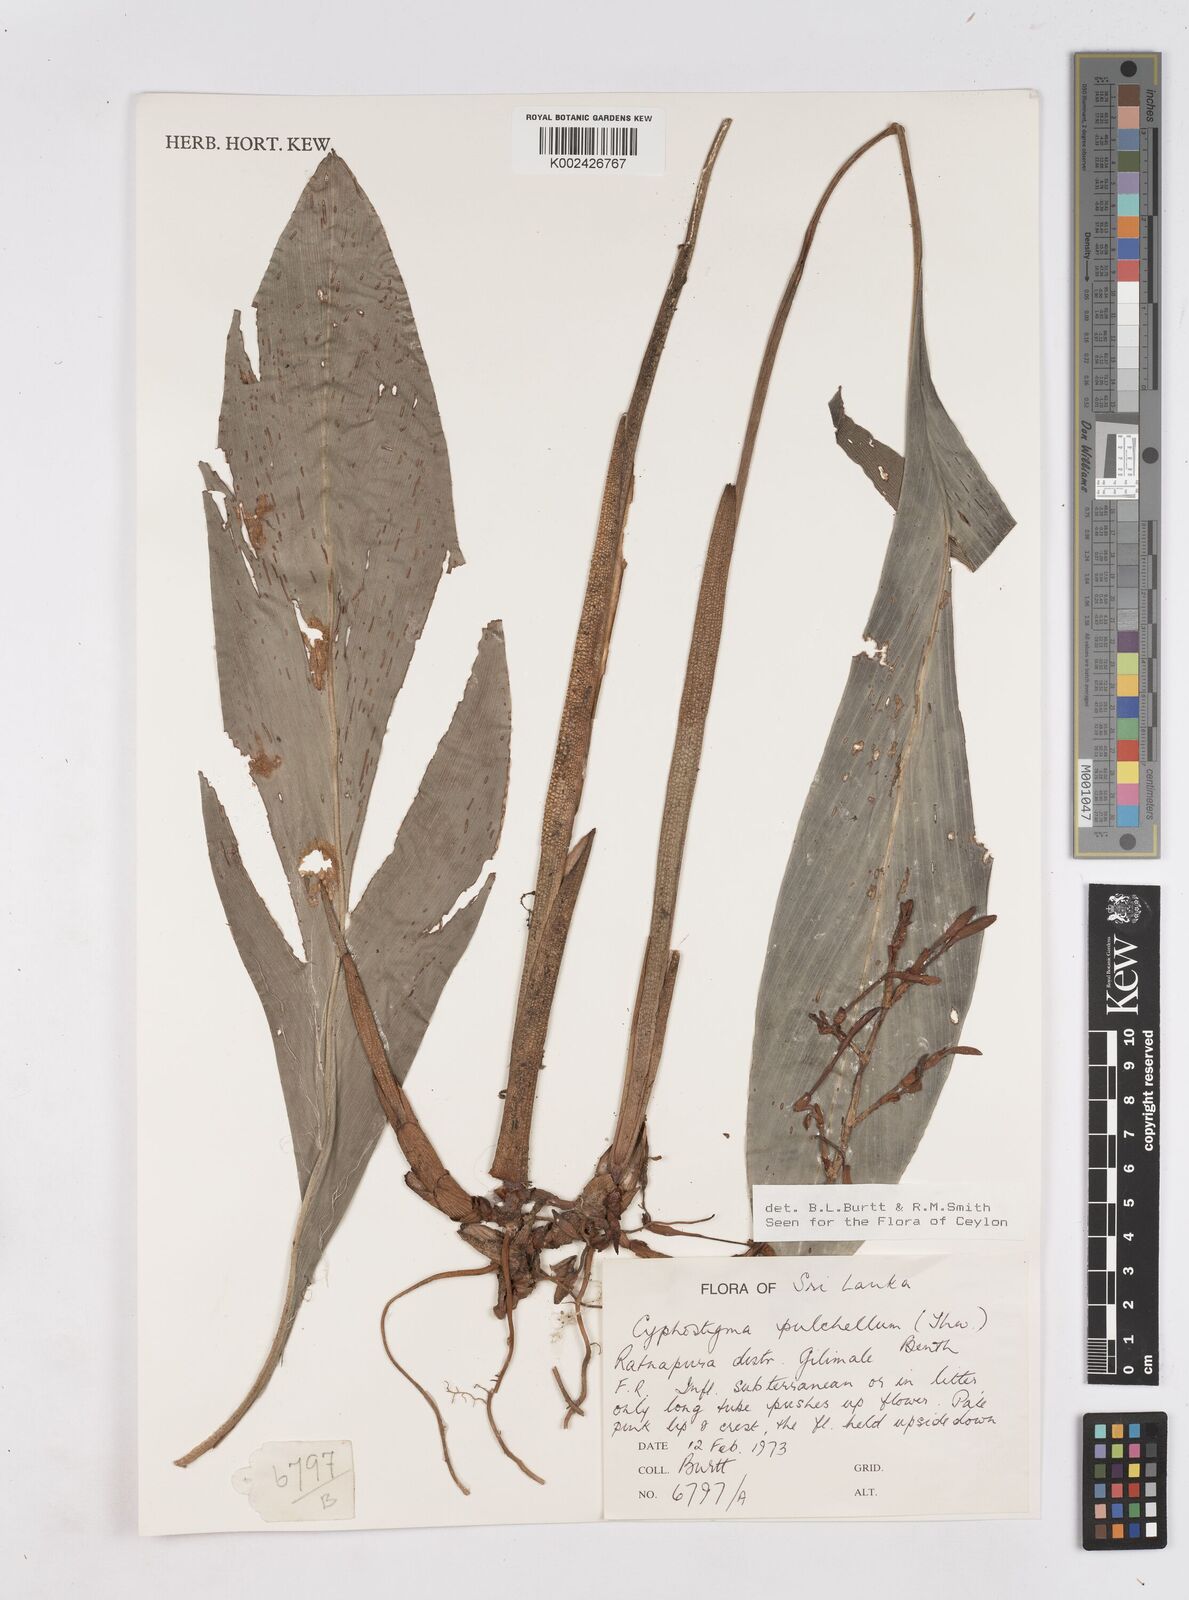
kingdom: Plantae
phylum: Tracheophyta
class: Liliopsida
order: Zingiberales
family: Zingiberaceae
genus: Cyphostigma
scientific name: Cyphostigma pulchellum
